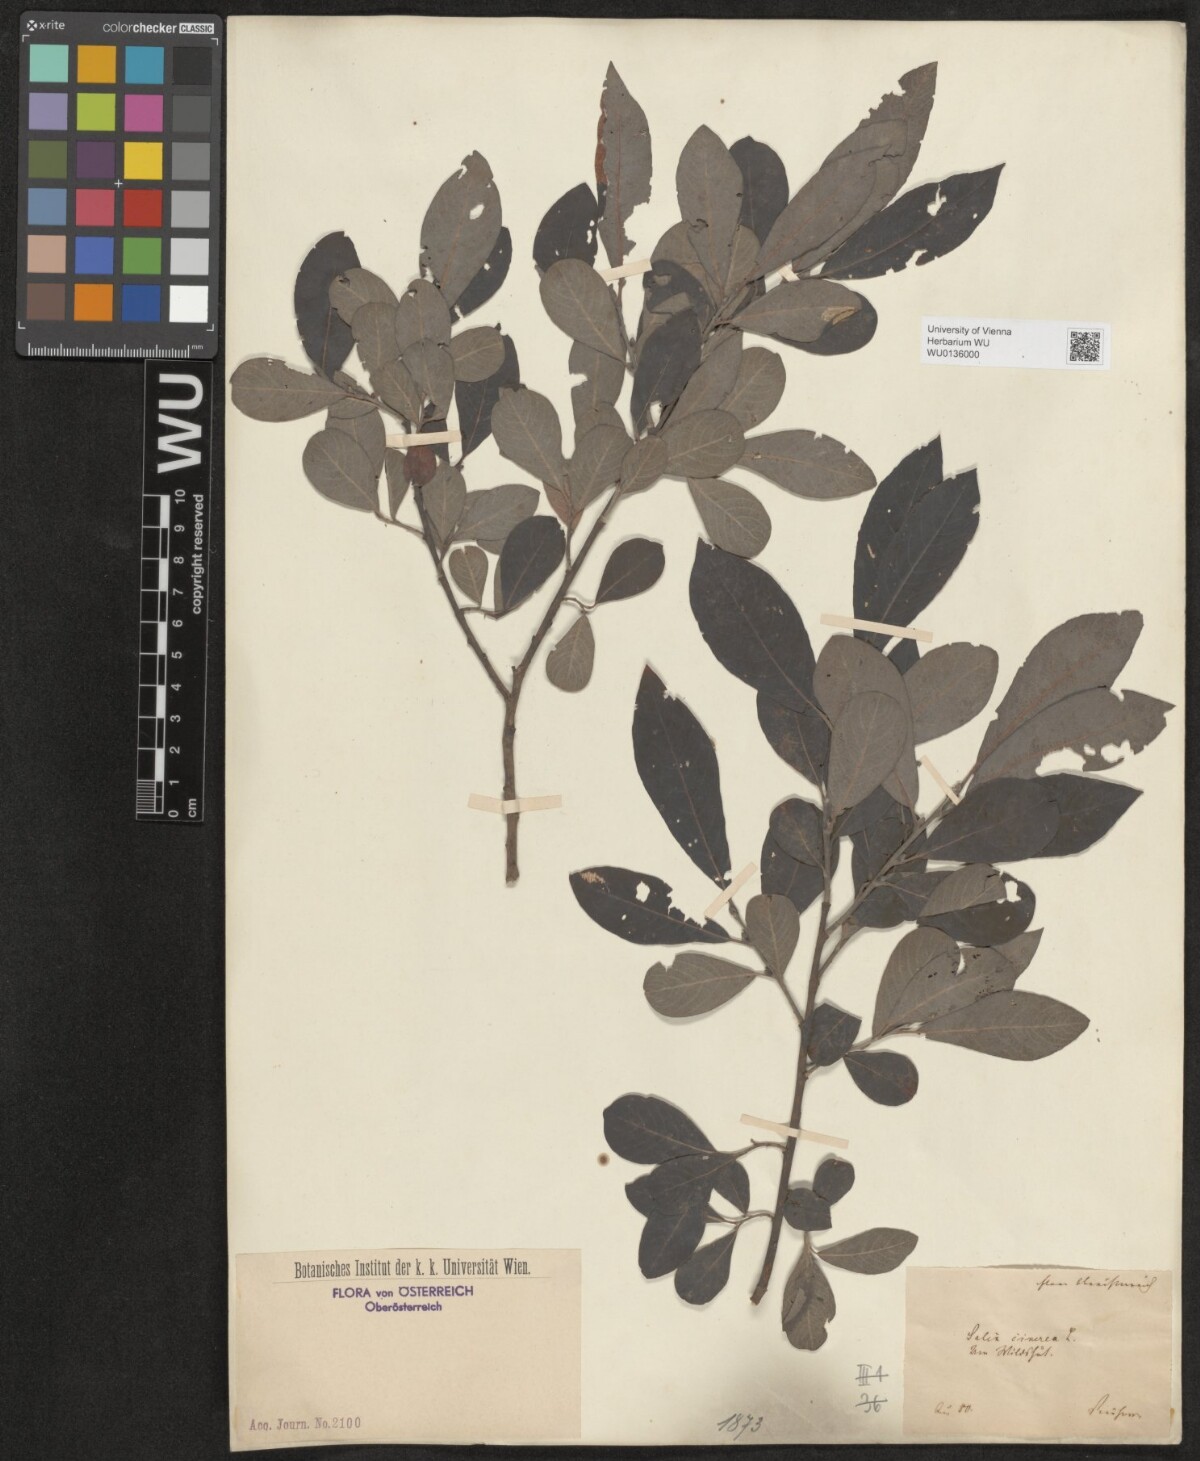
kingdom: Plantae
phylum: Tracheophyta
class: Magnoliopsida
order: Malpighiales
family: Salicaceae
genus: Salix
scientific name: Salix cinerea
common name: Common sallow
